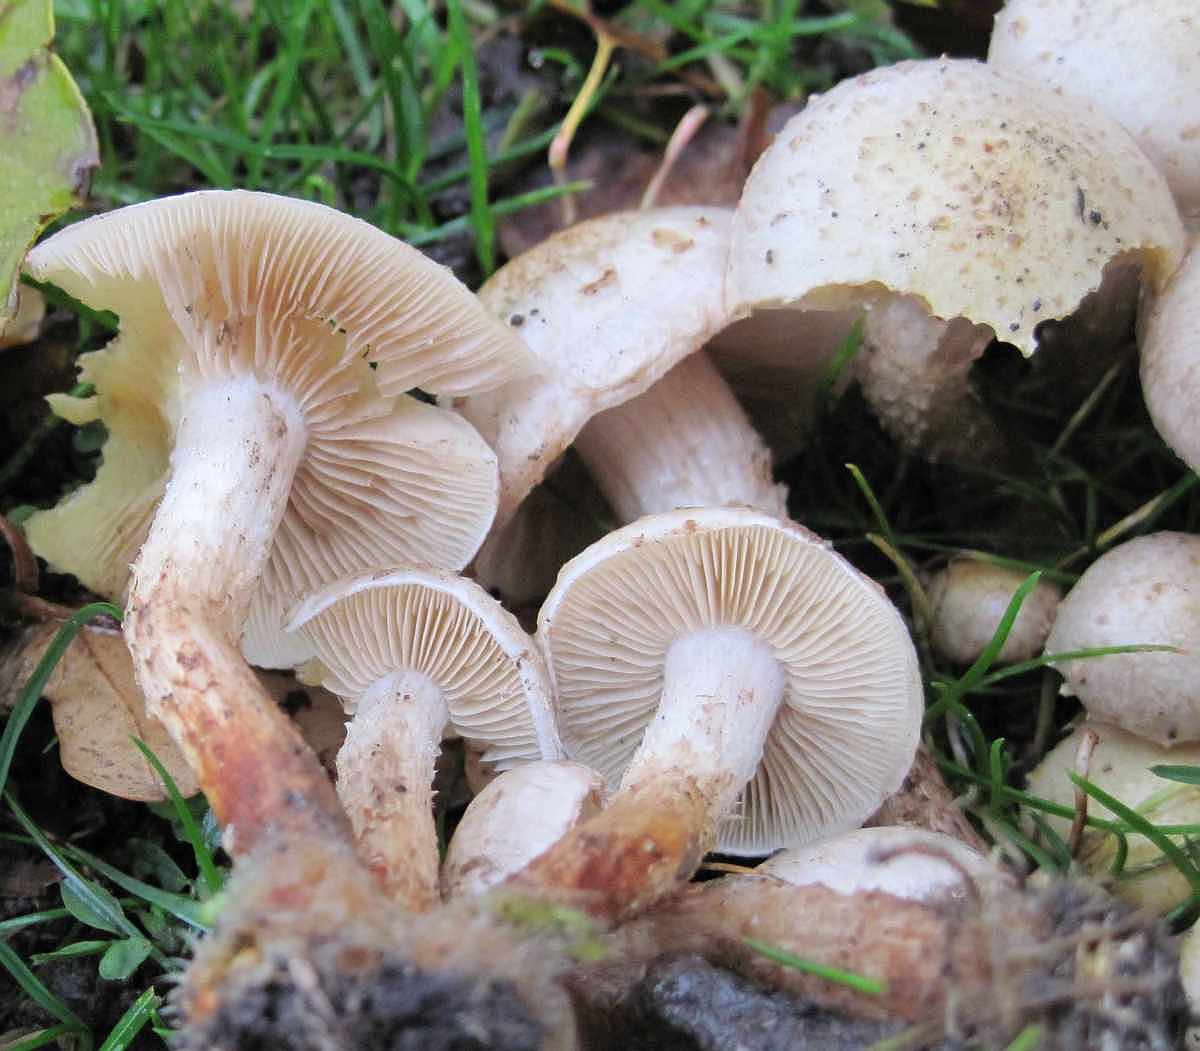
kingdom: Fungi
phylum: Basidiomycota
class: Agaricomycetes
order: Agaricales
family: Strophariaceae
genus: Pholiota
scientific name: Pholiota gummosa
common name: grøngul skælhat
